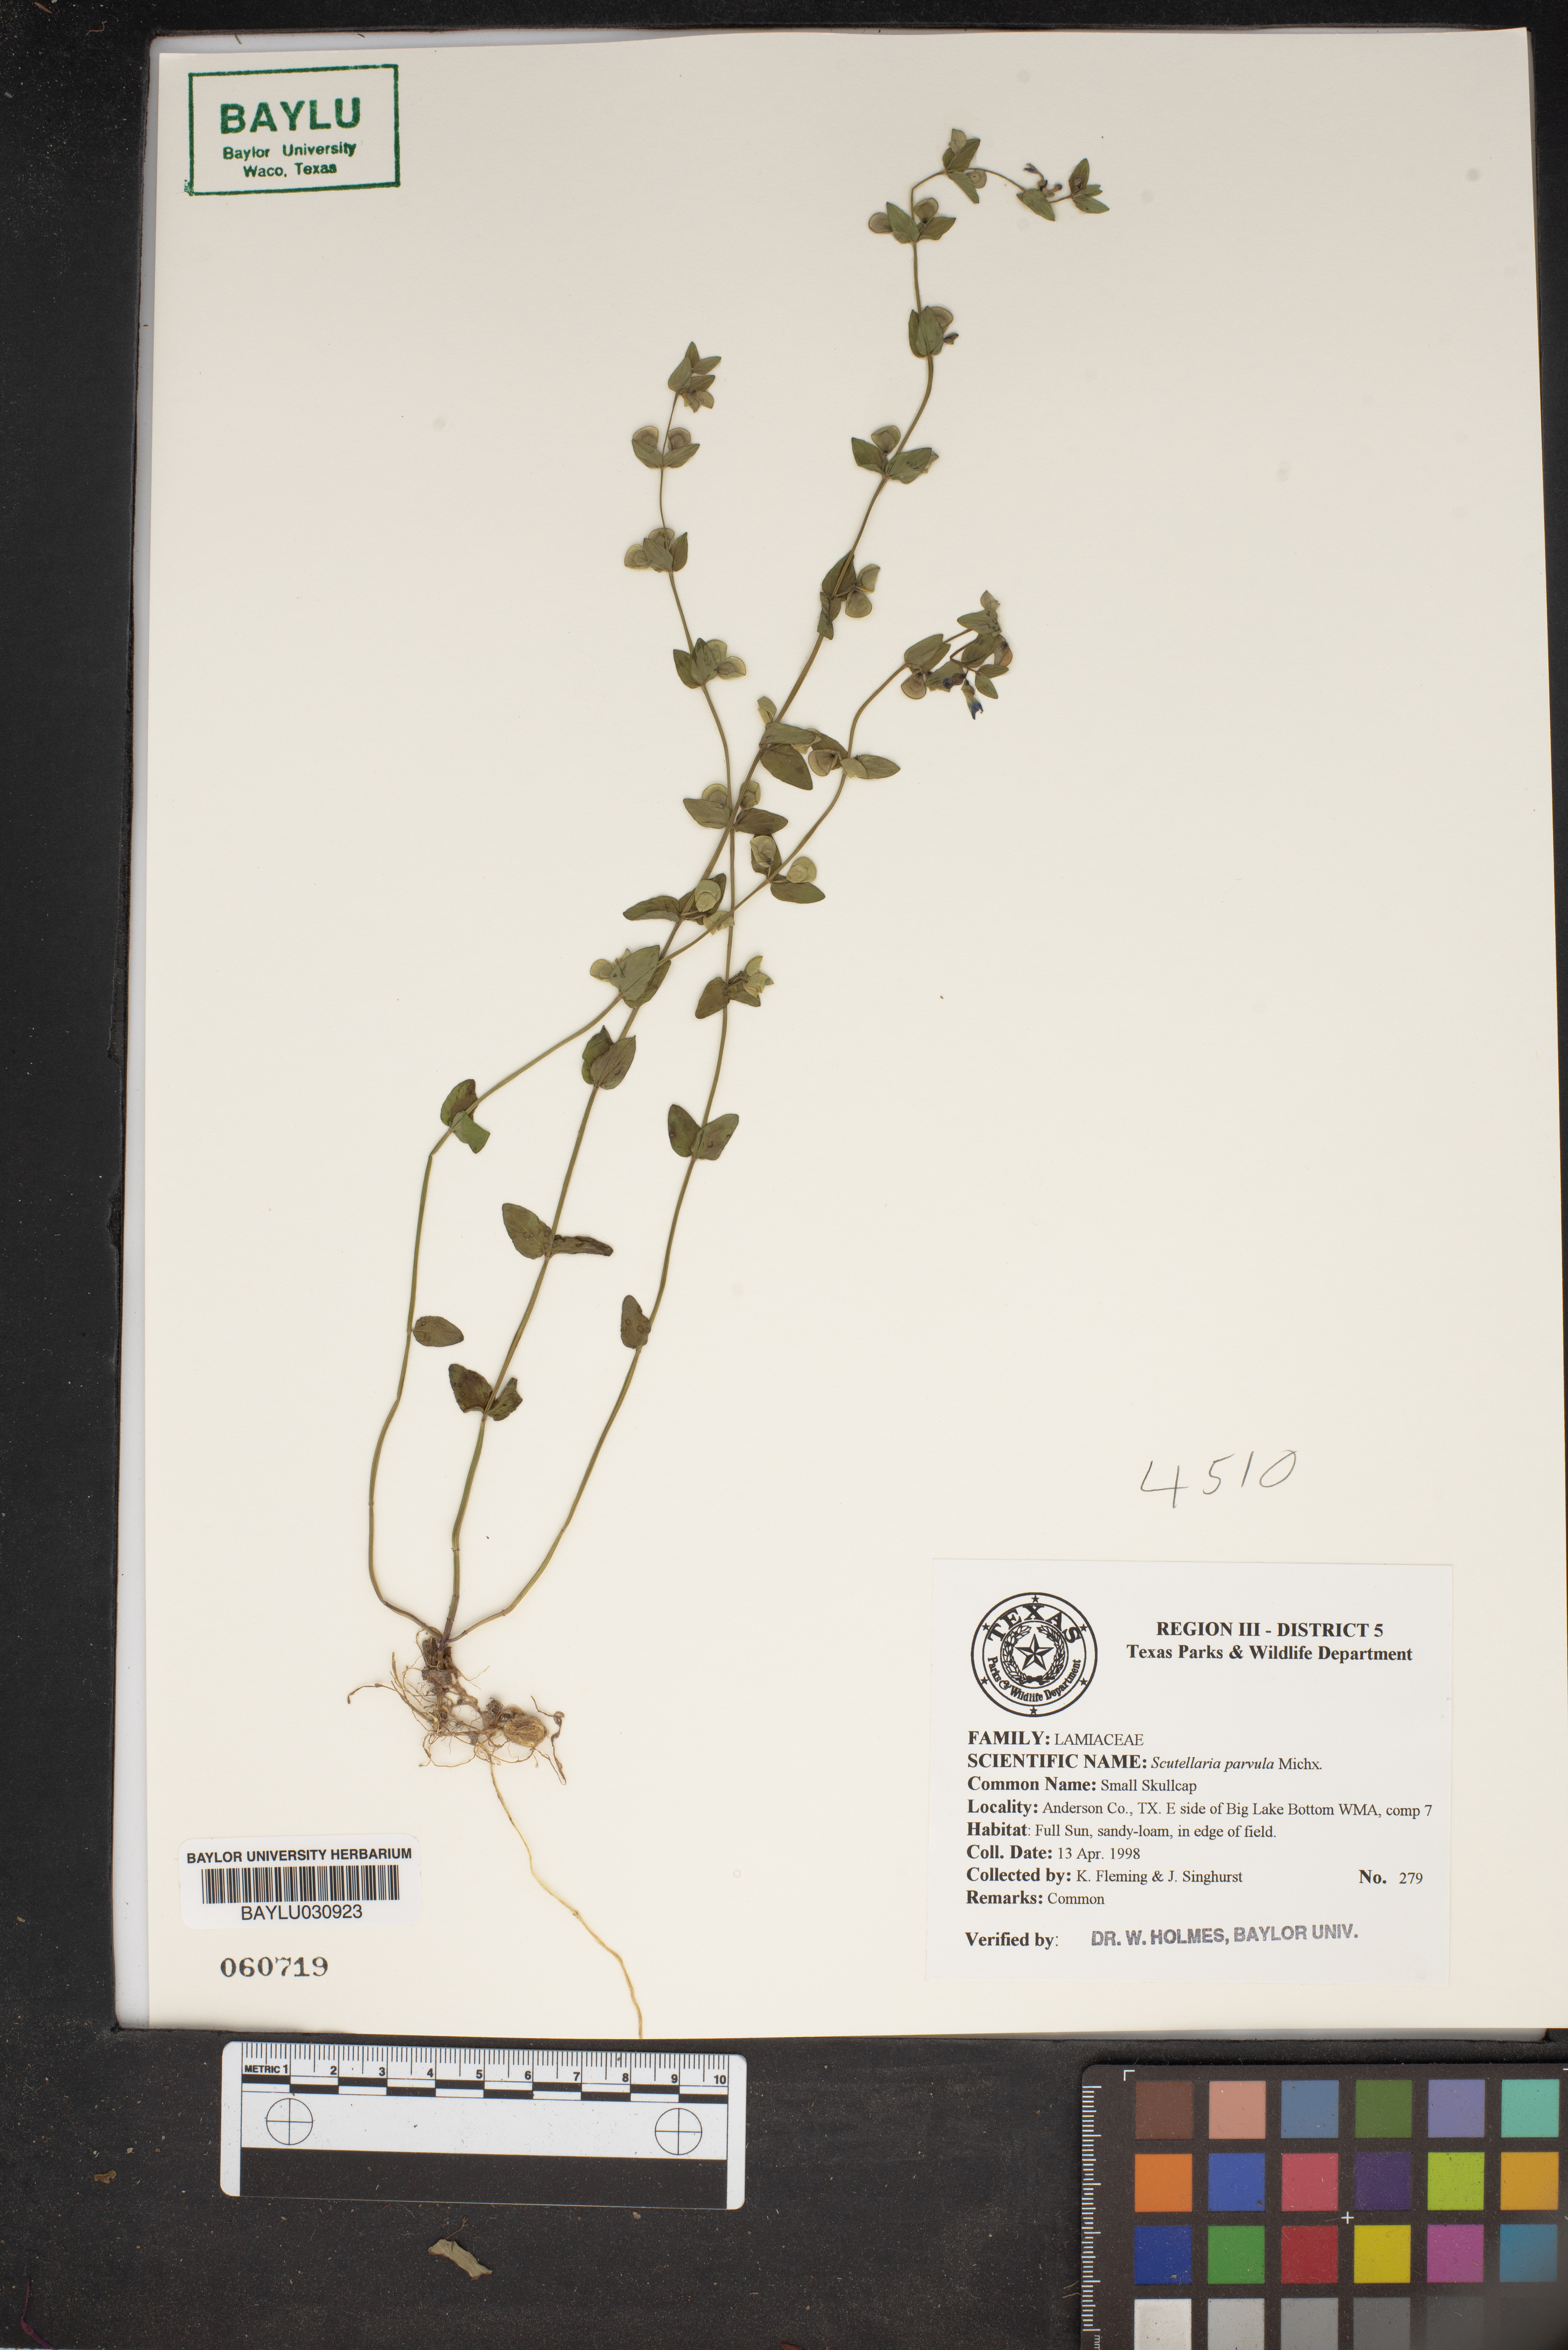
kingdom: Plantae
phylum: Tracheophyta
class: Magnoliopsida
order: Lamiales
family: Lamiaceae
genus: Scutellaria
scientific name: Scutellaria parvula
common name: Little scullcap
